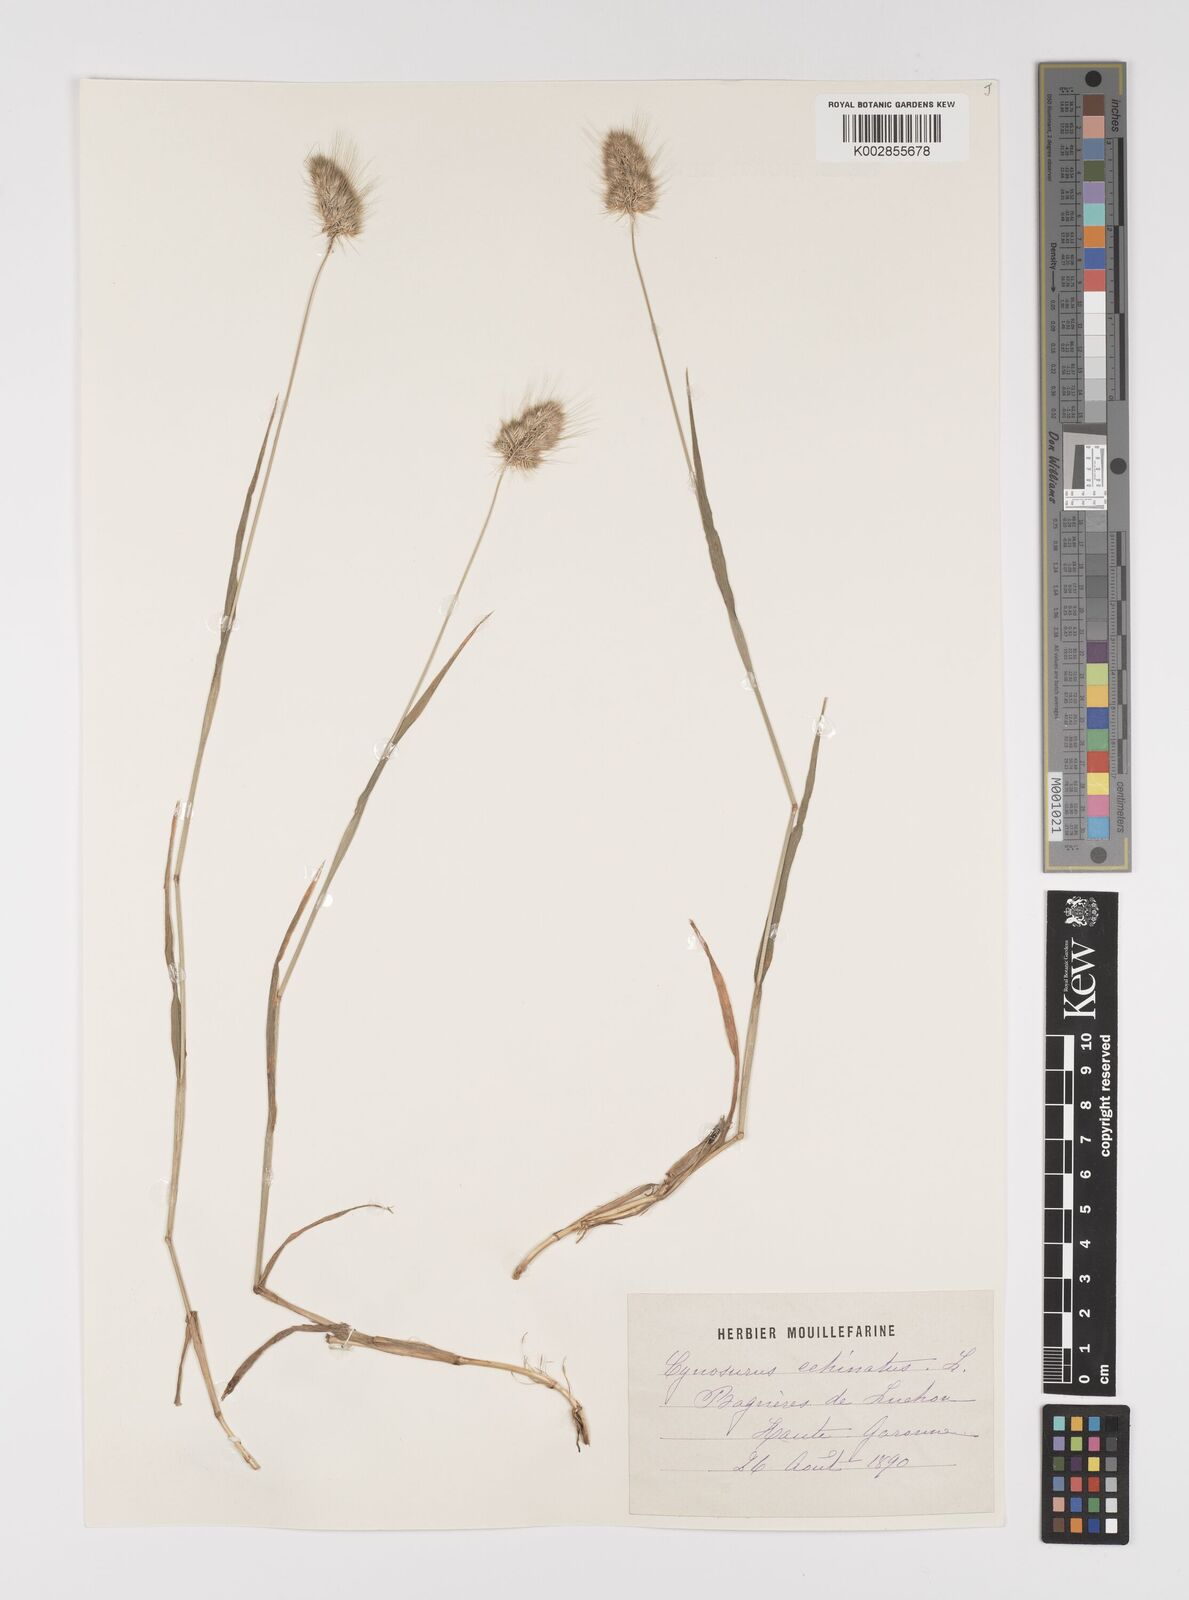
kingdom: Plantae
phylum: Tracheophyta
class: Liliopsida
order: Poales
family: Poaceae
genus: Cynosurus
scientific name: Cynosurus echinatus
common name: Rough dog's-tail
